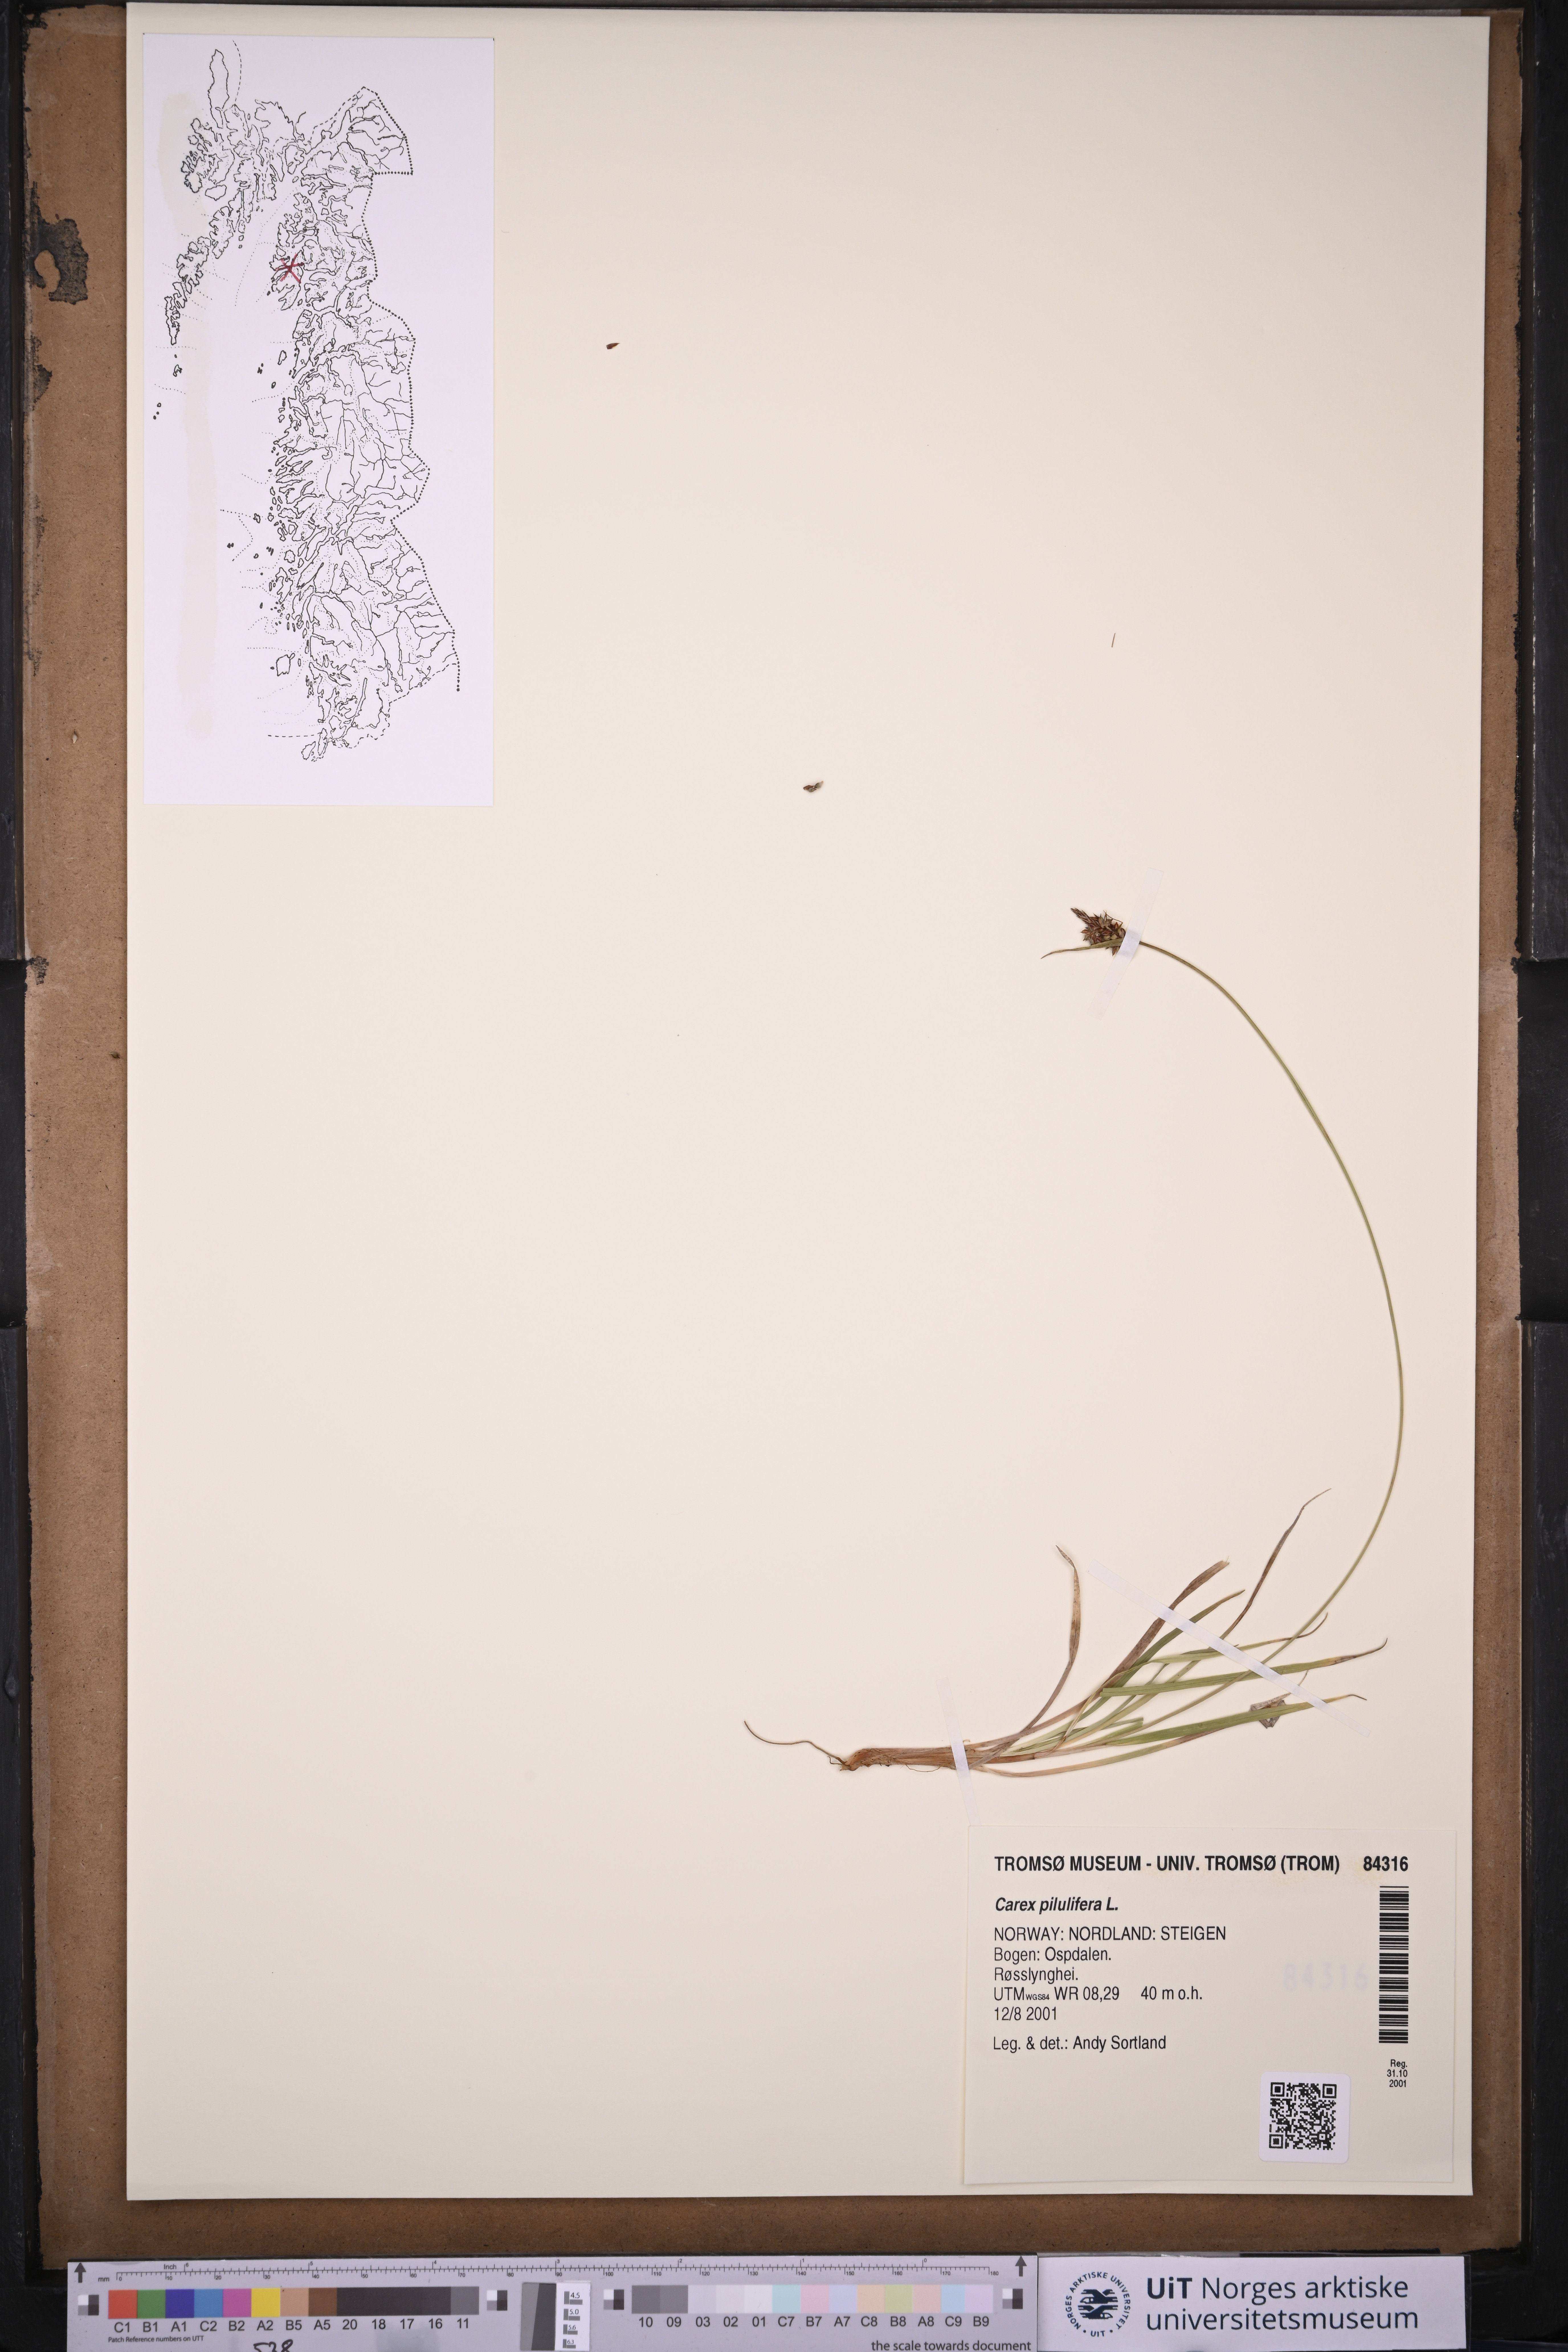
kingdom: Plantae
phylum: Tracheophyta
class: Liliopsida
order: Poales
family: Cyperaceae
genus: Carex
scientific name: Carex pilulifera
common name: Pill sedge
